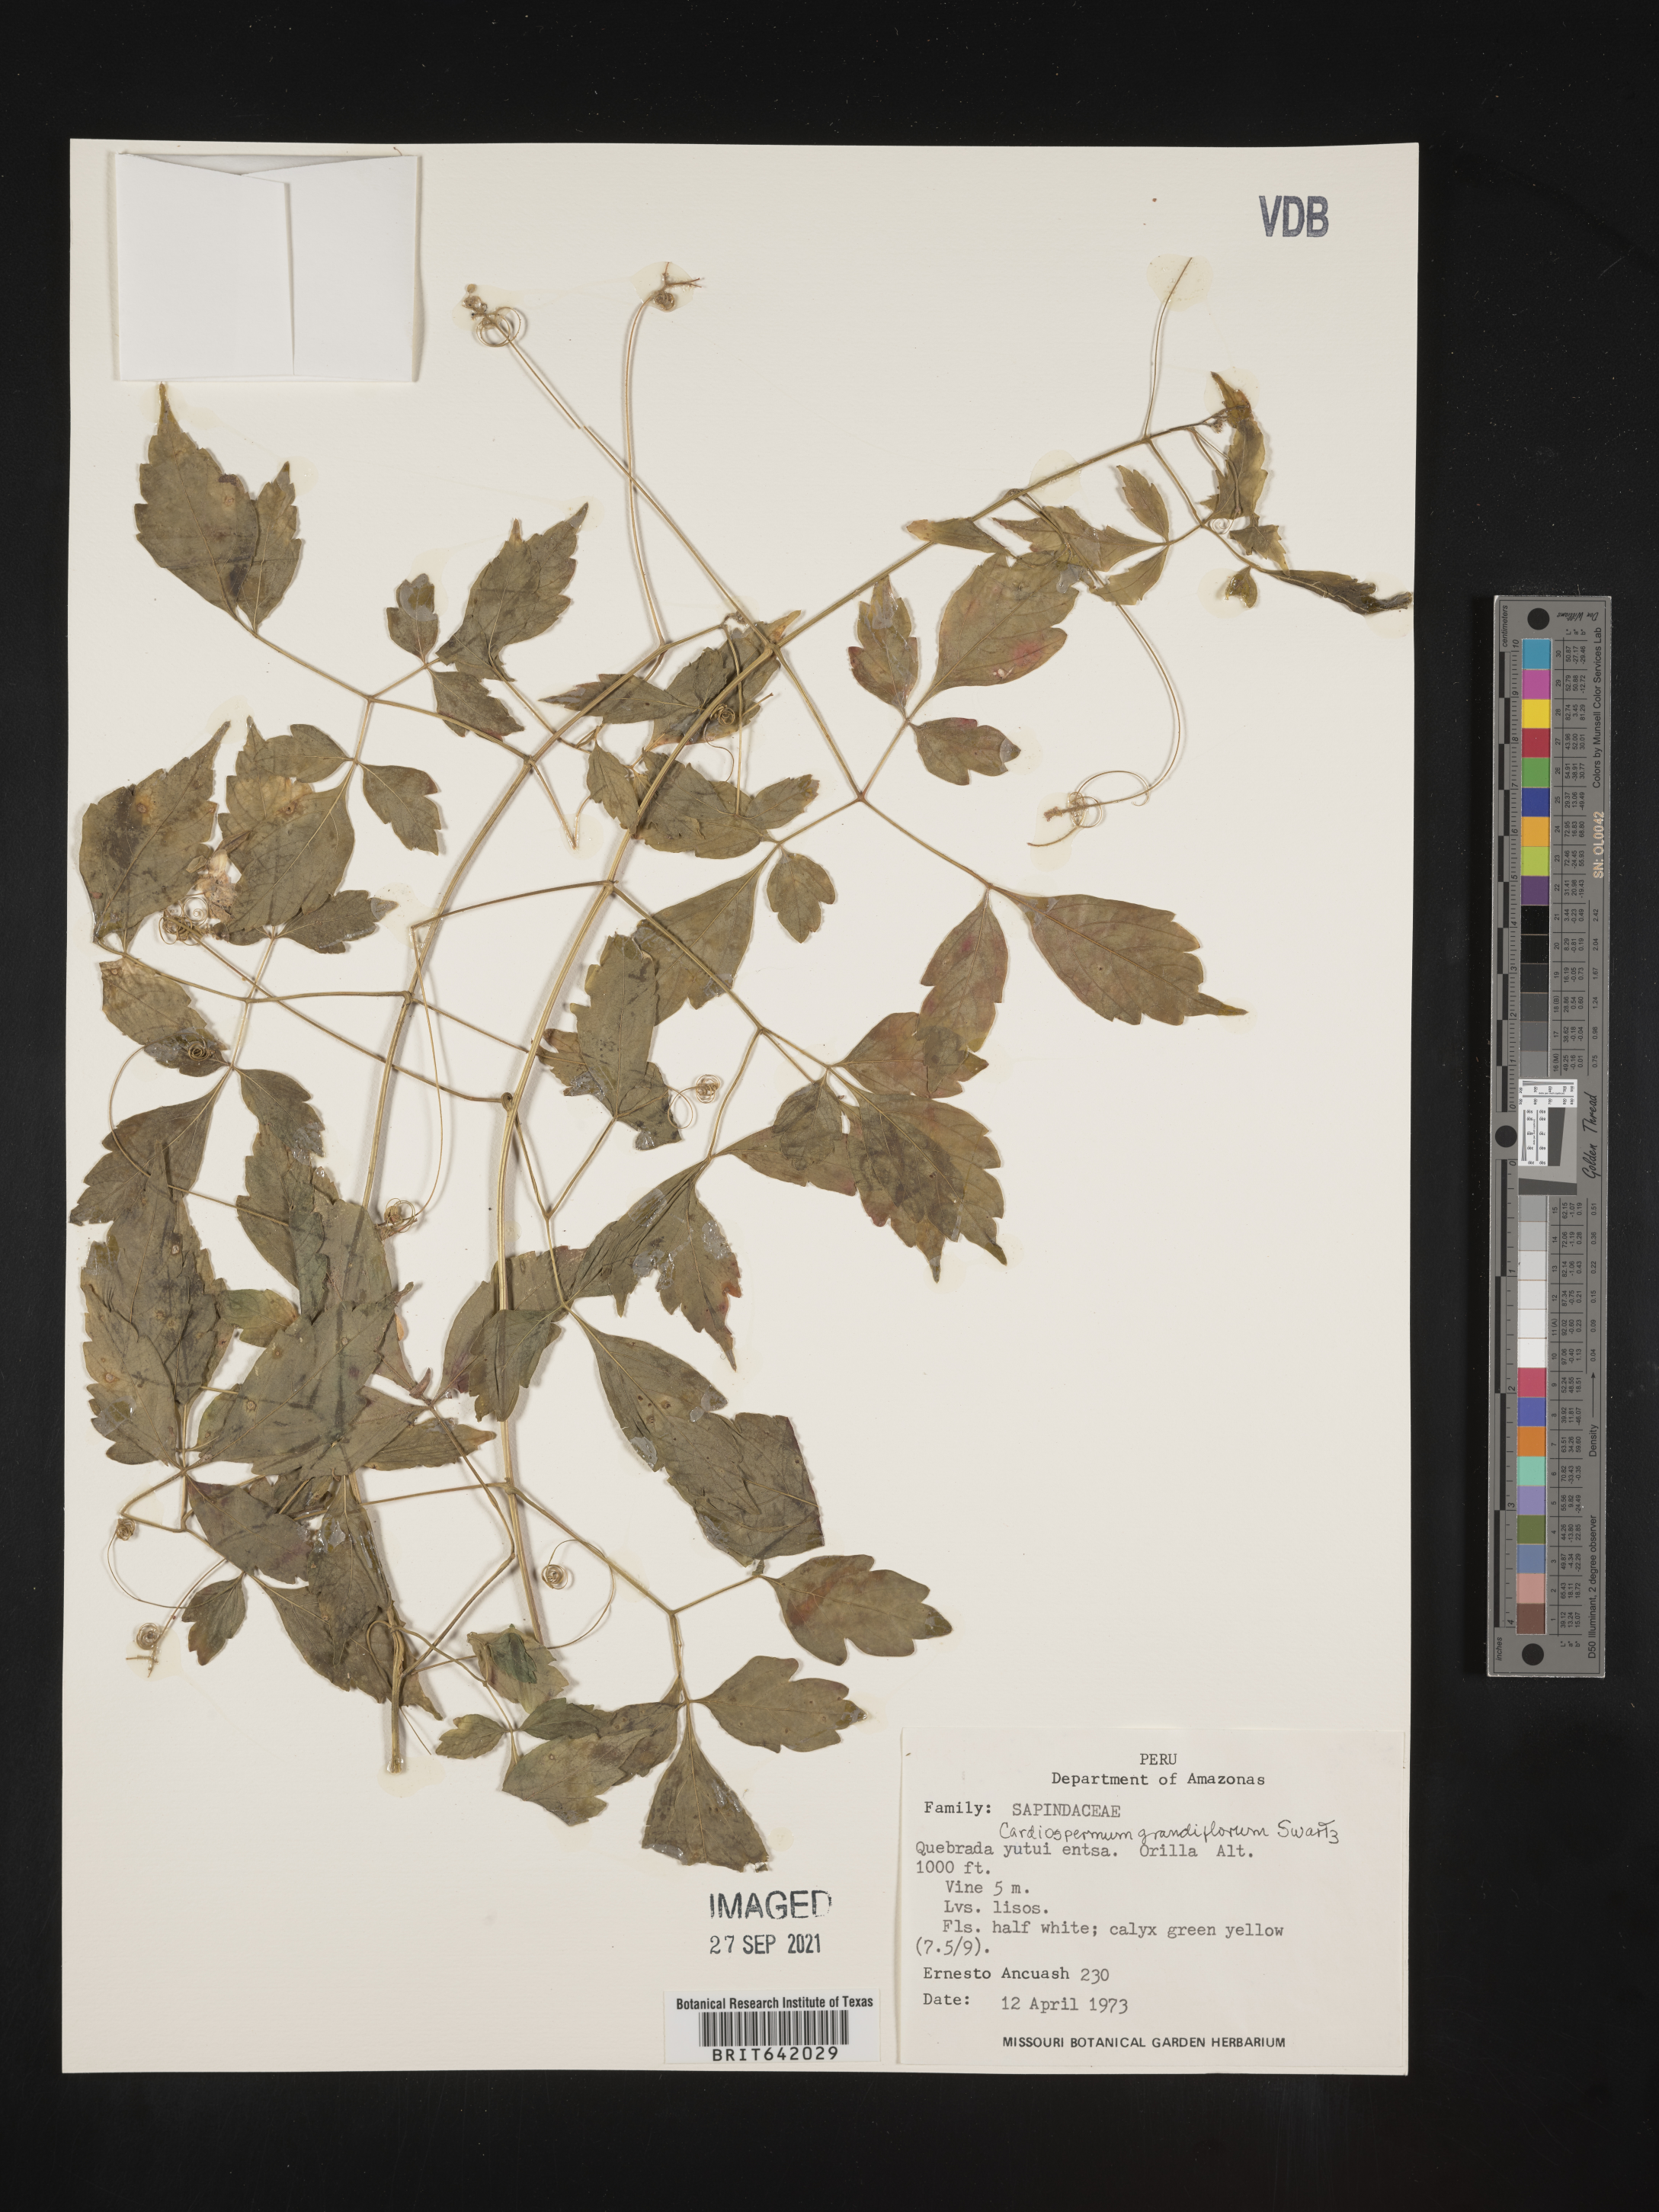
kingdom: Plantae
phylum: Tracheophyta
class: Magnoliopsida
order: Sapindales
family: Sapindaceae
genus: Cardiospermum
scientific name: Cardiospermum
